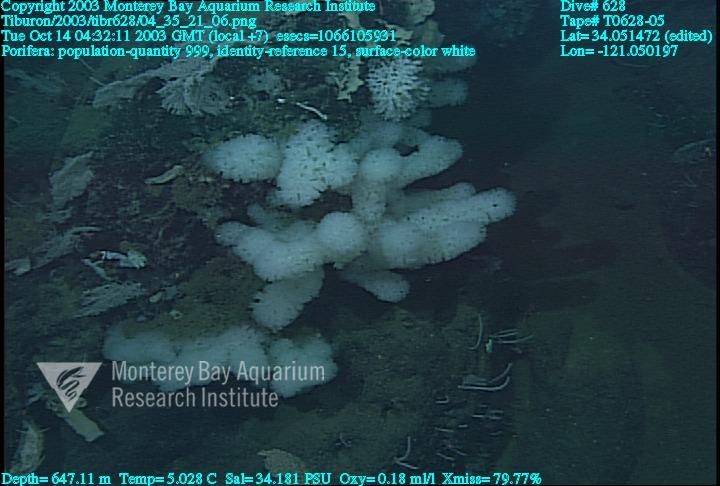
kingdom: Animalia
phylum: Porifera
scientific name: Porifera
